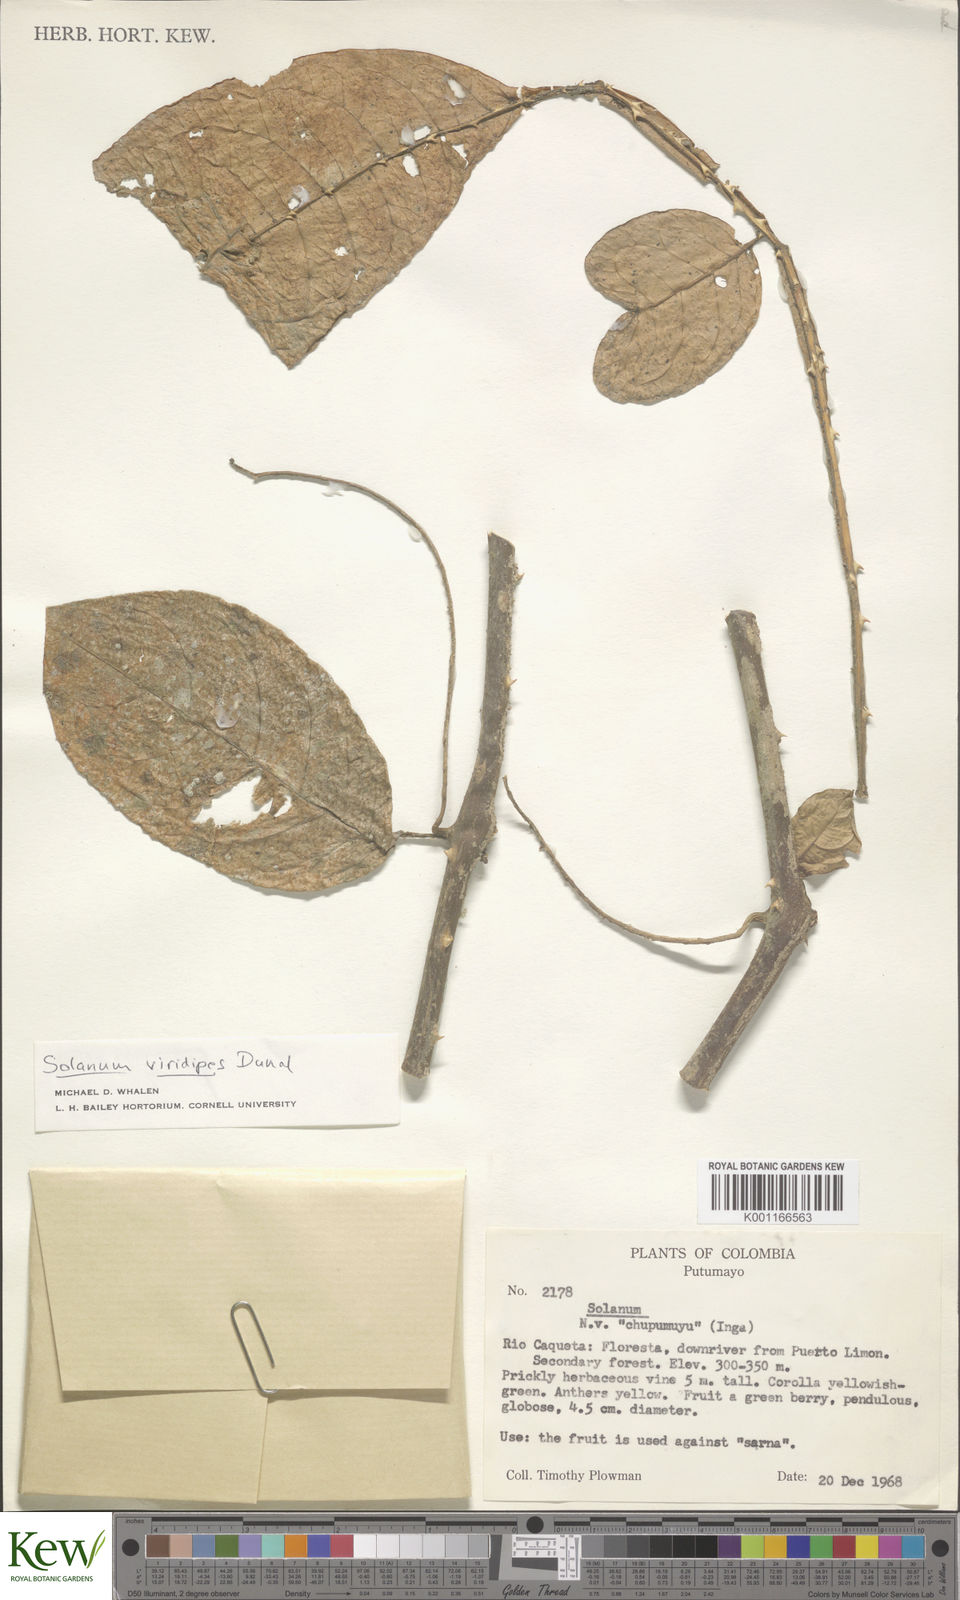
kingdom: Plantae
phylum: Tracheophyta
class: Magnoliopsida
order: Solanales
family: Solanaceae
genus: Solanum
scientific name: Solanum alternatopinnatum
